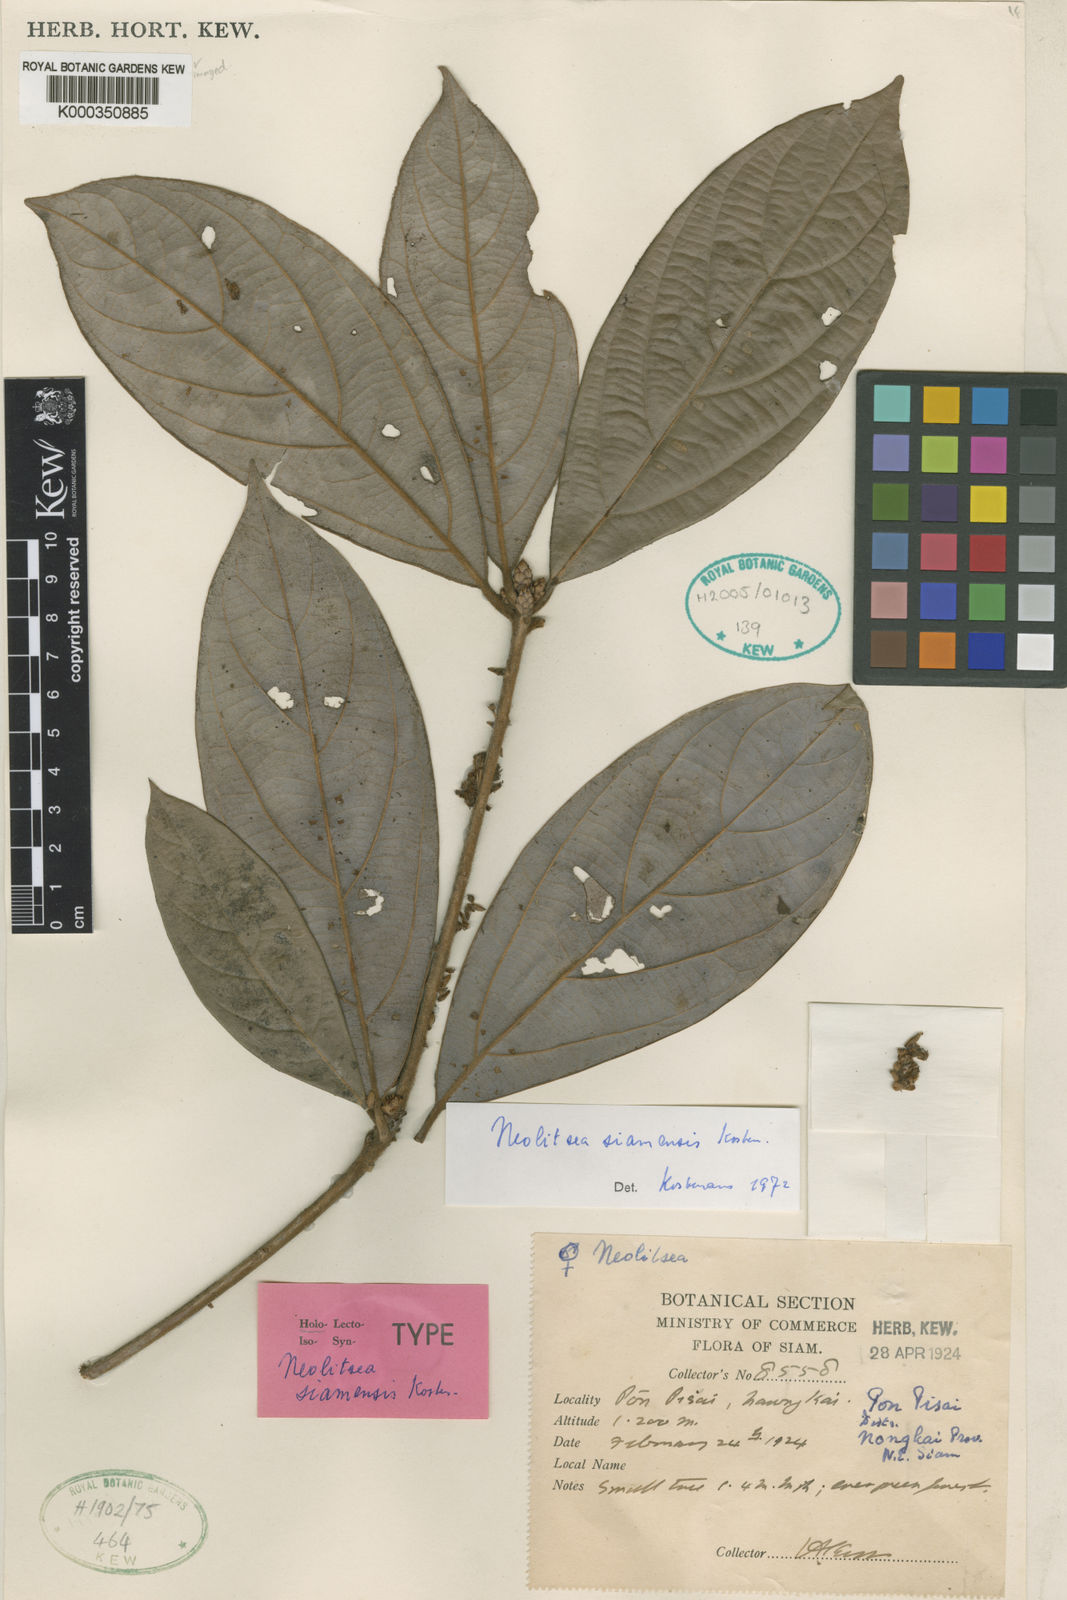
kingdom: Plantae
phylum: Tracheophyta
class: Magnoliopsida
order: Laurales
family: Lauraceae
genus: Neolitsea
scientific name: Neolitsea siamensis
